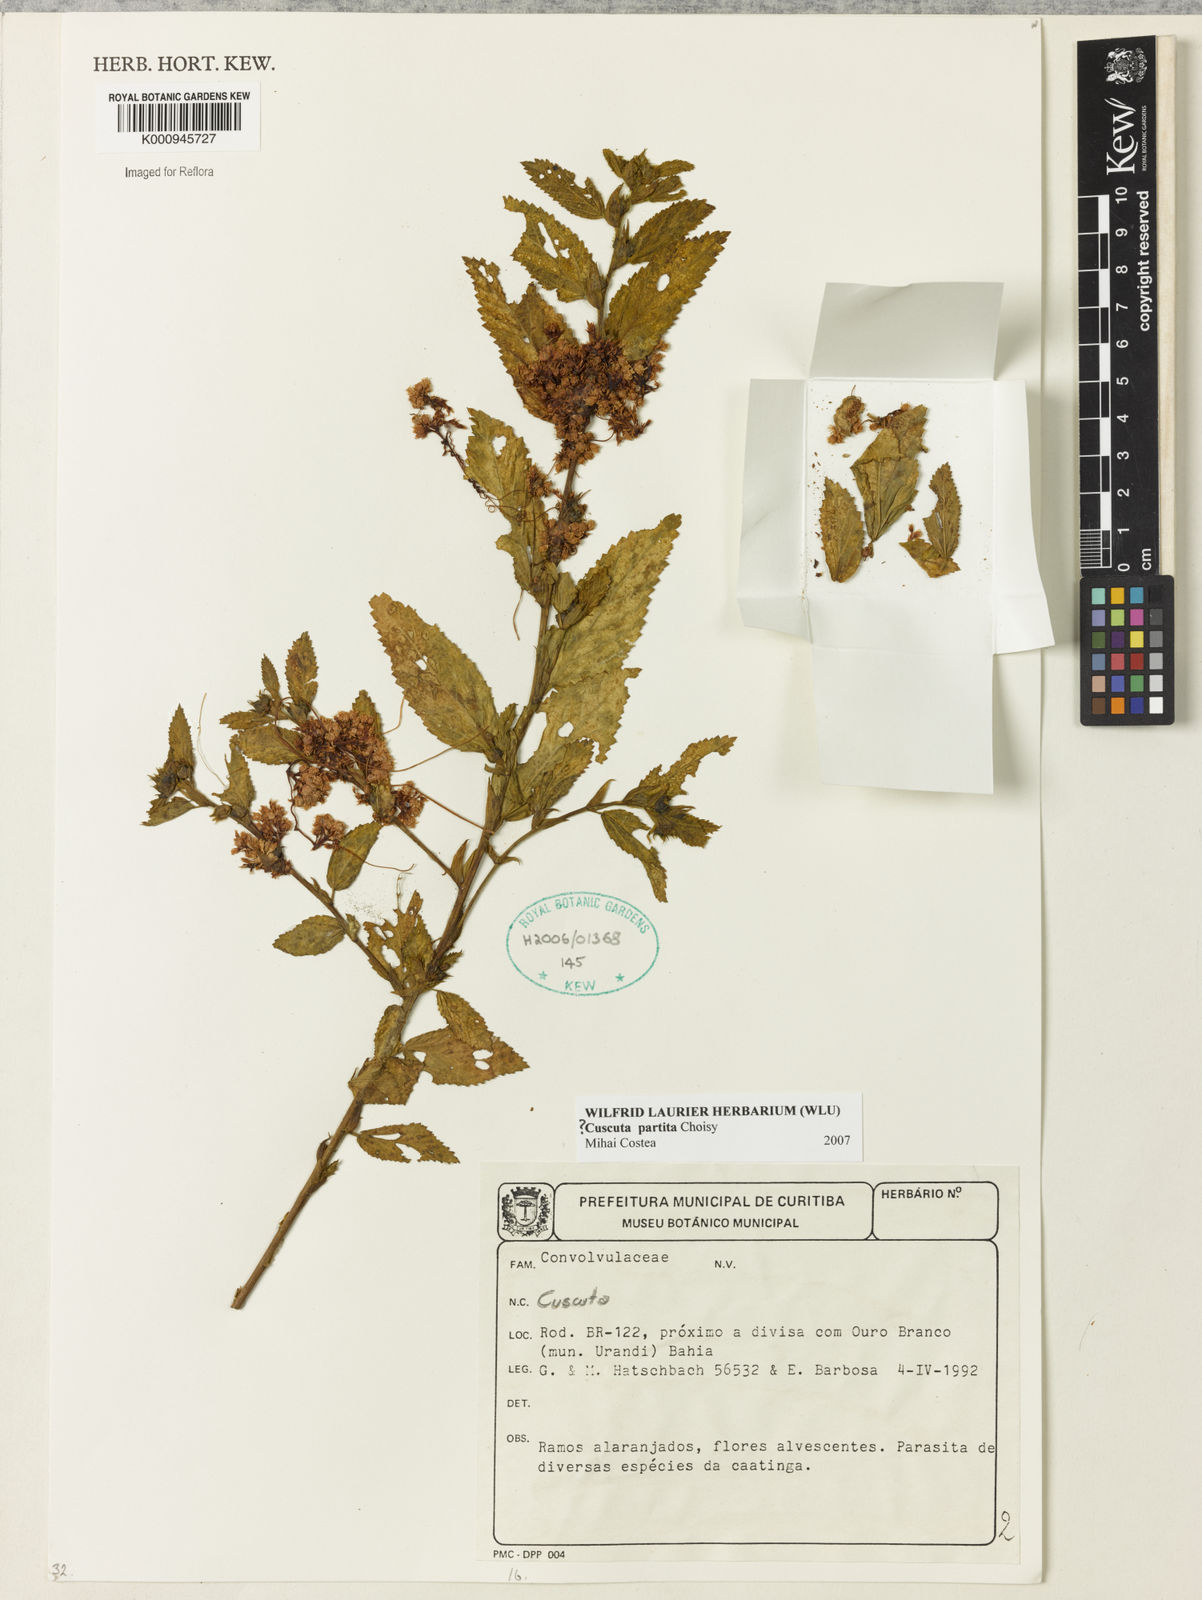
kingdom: Plantae
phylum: Tracheophyta
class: Magnoliopsida
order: Solanales
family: Convolvulaceae
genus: Cuscuta
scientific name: Cuscuta partita
